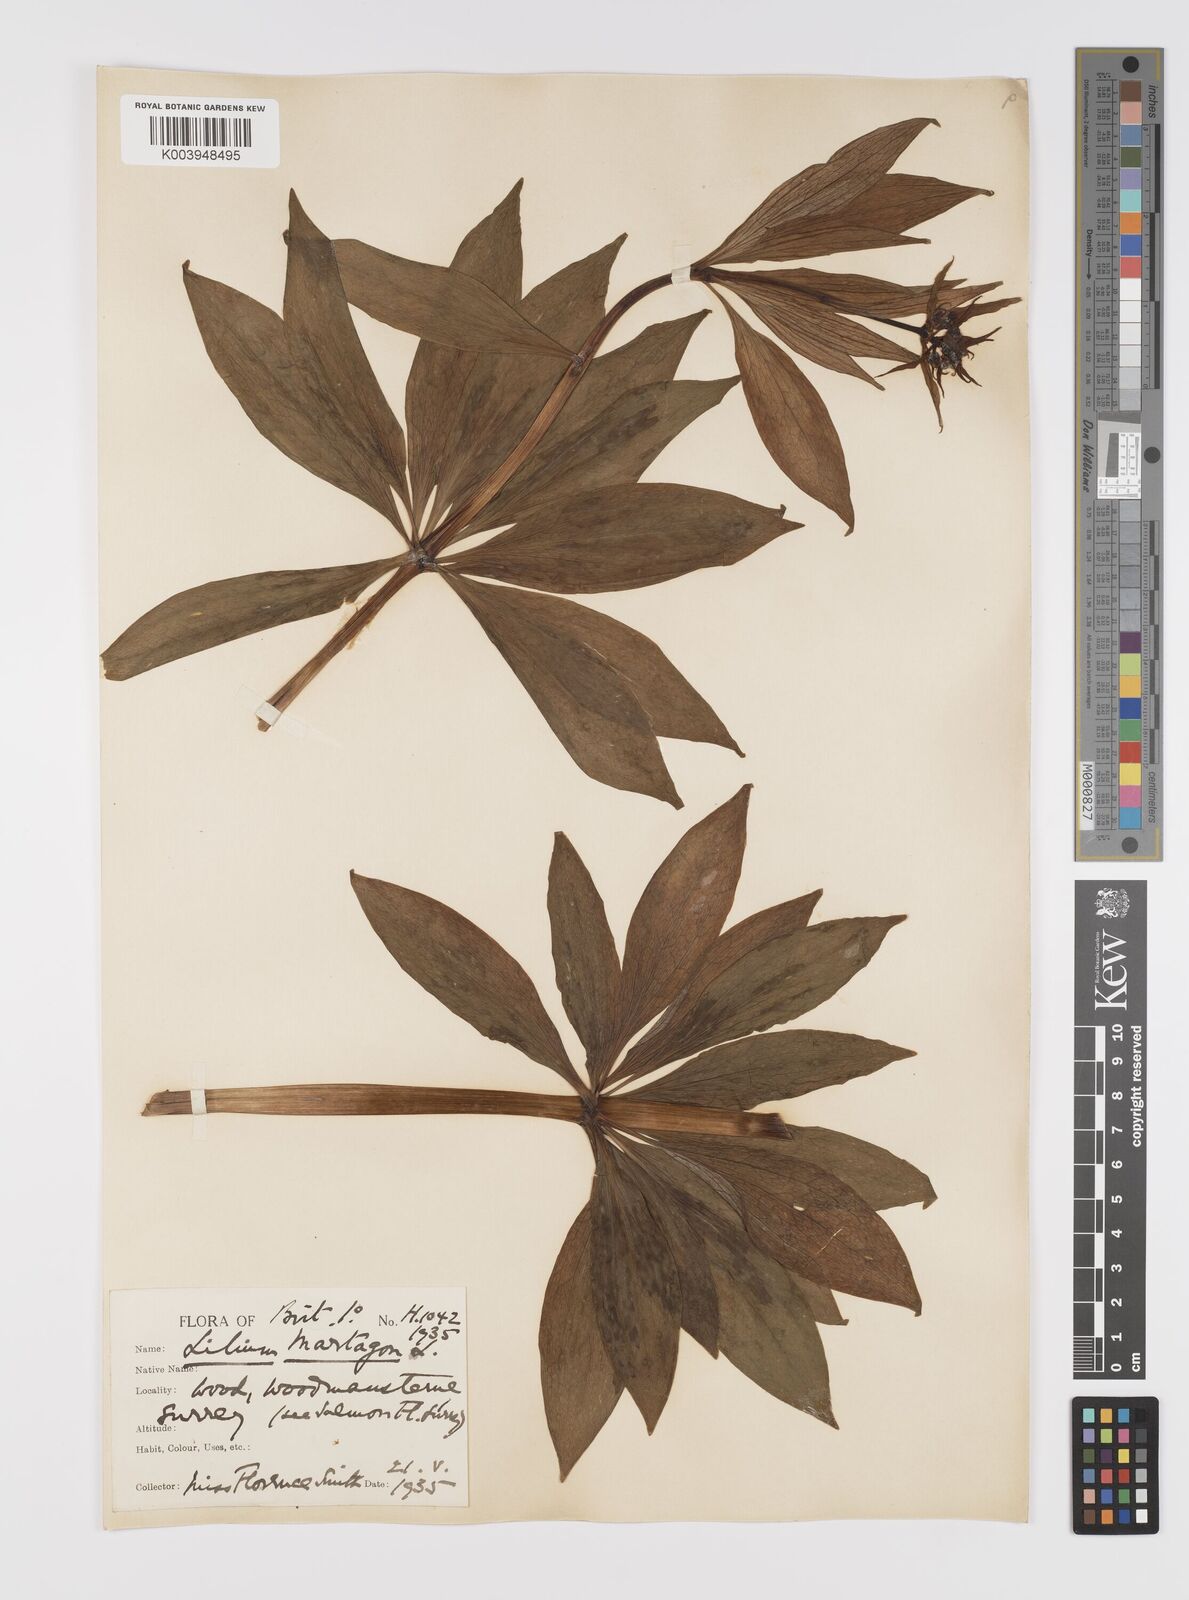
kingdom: Plantae
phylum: Tracheophyta
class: Liliopsida
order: Liliales
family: Liliaceae
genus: Lilium
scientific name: Lilium martagon
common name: Martagon lily
